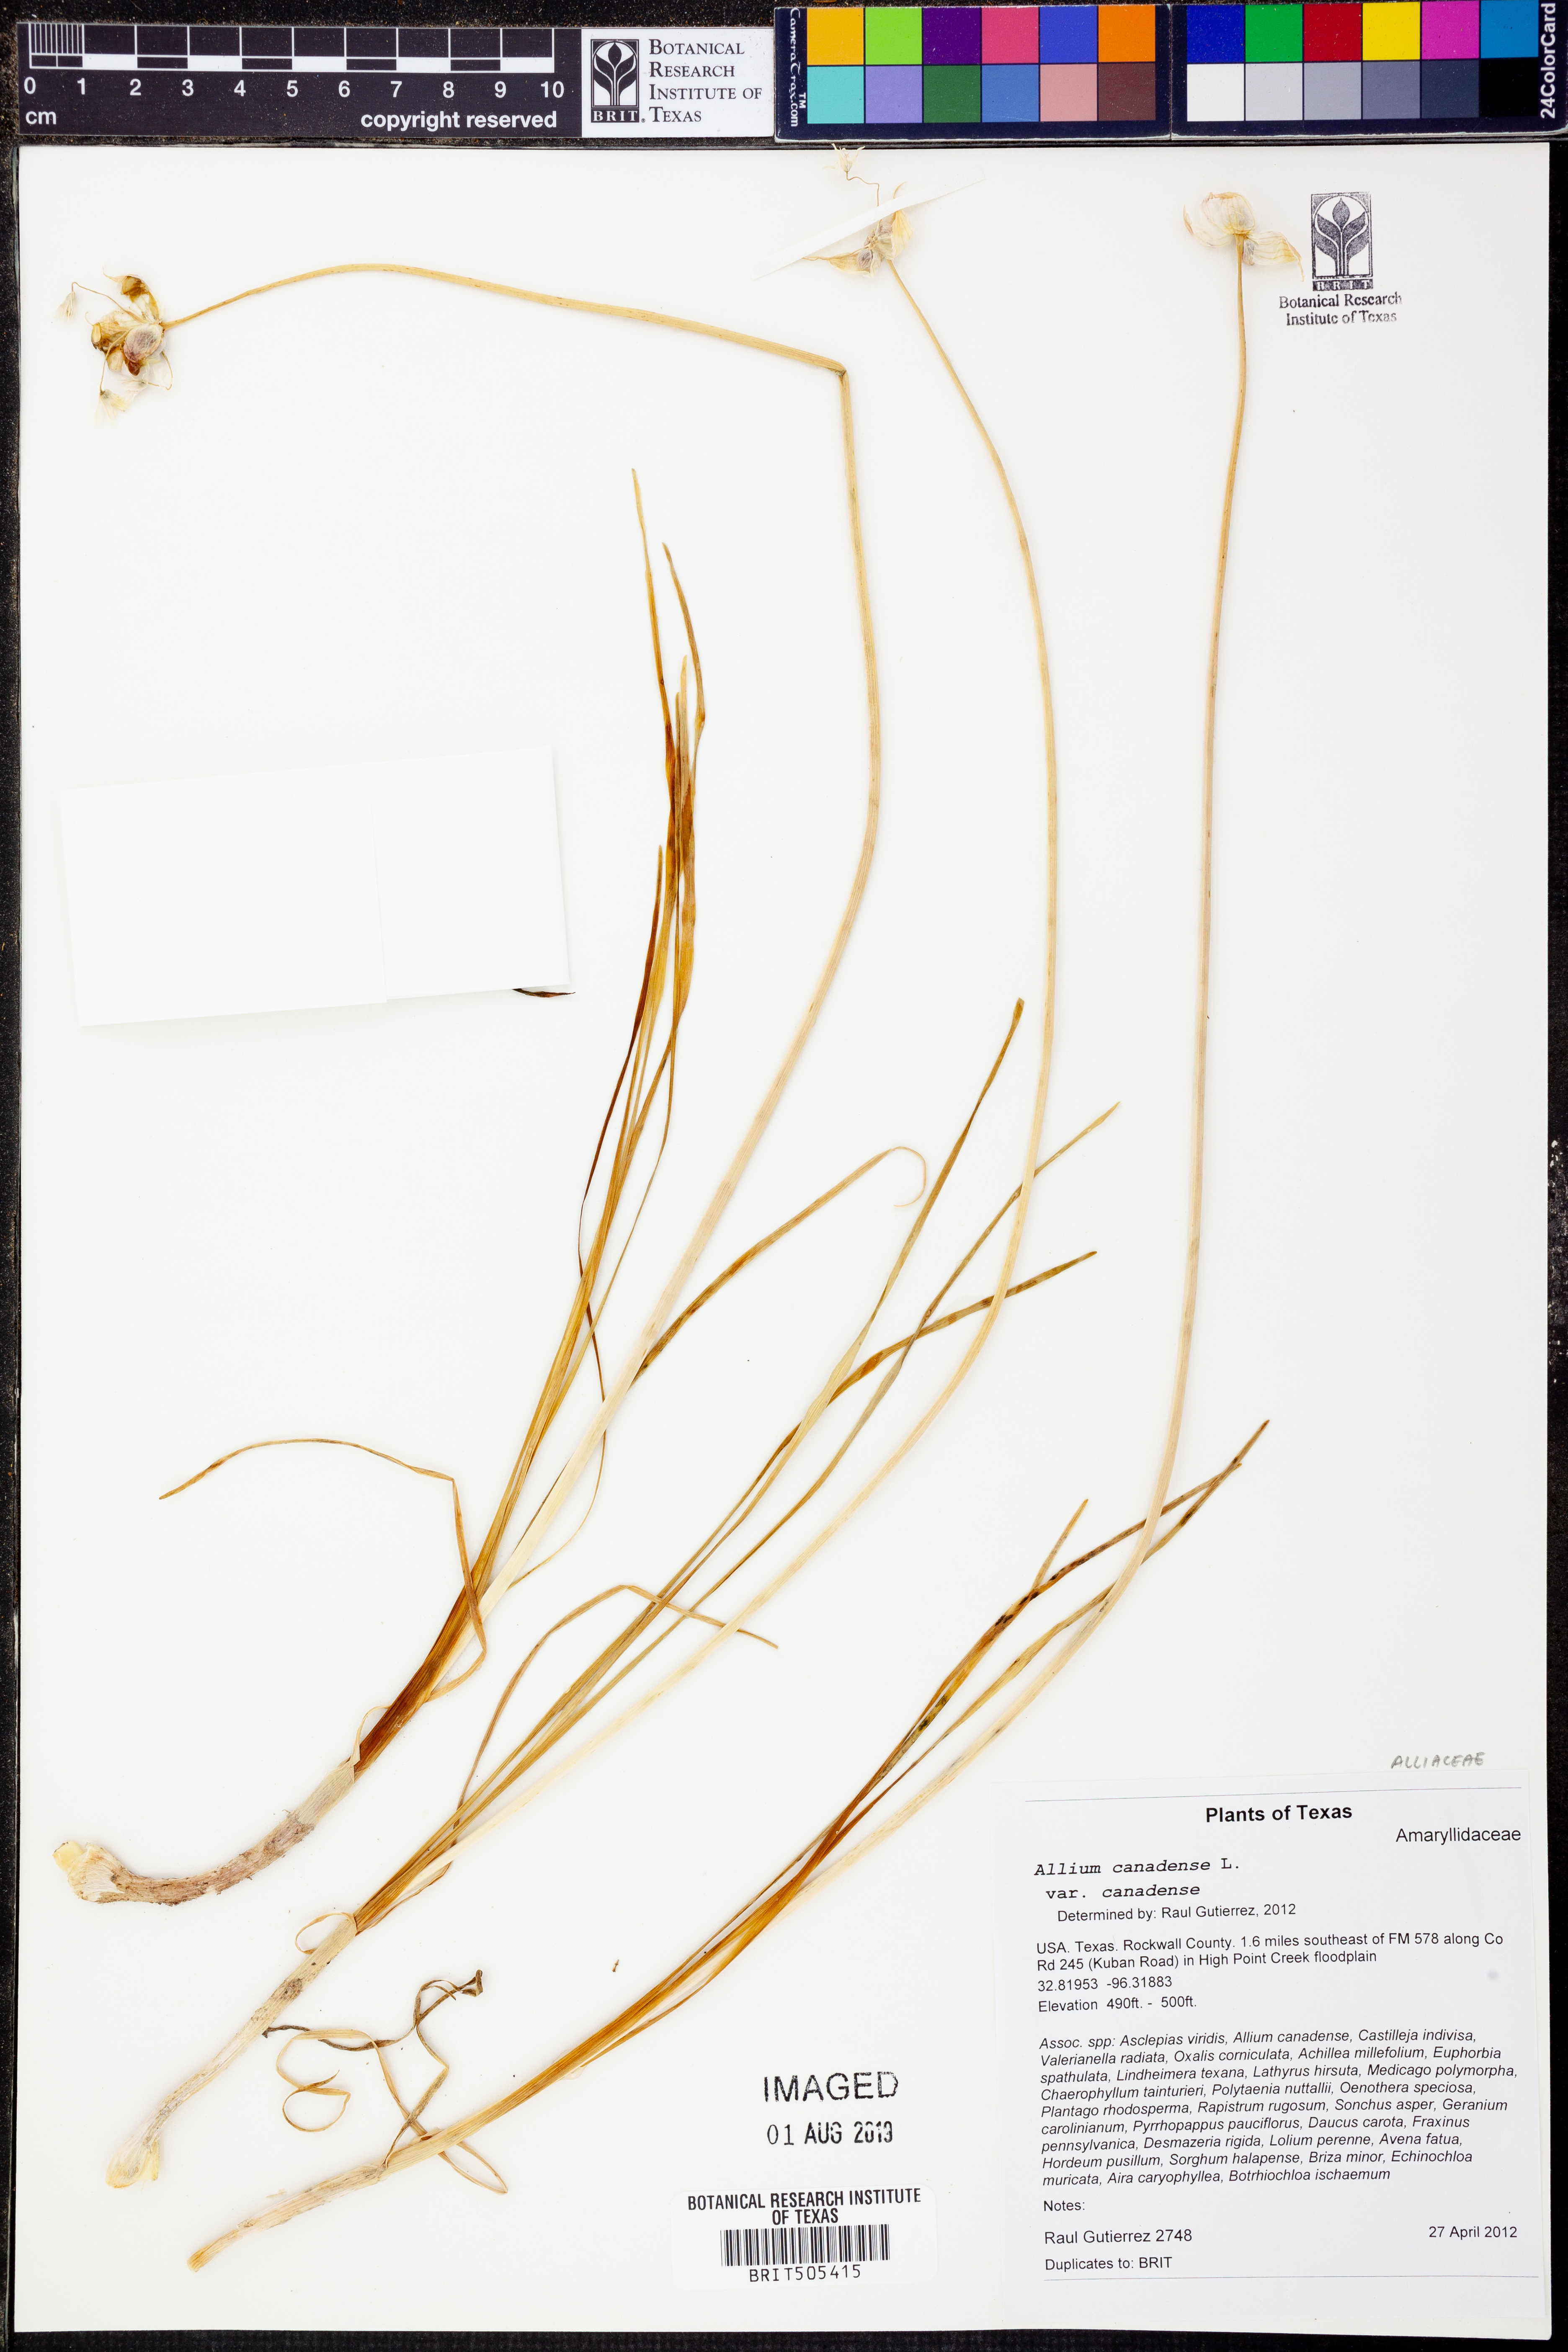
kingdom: Plantae
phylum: Tracheophyta
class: Liliopsida
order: Asparagales
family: Amaryllidaceae
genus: Allium
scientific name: Allium canadense
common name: Meadow garlic
